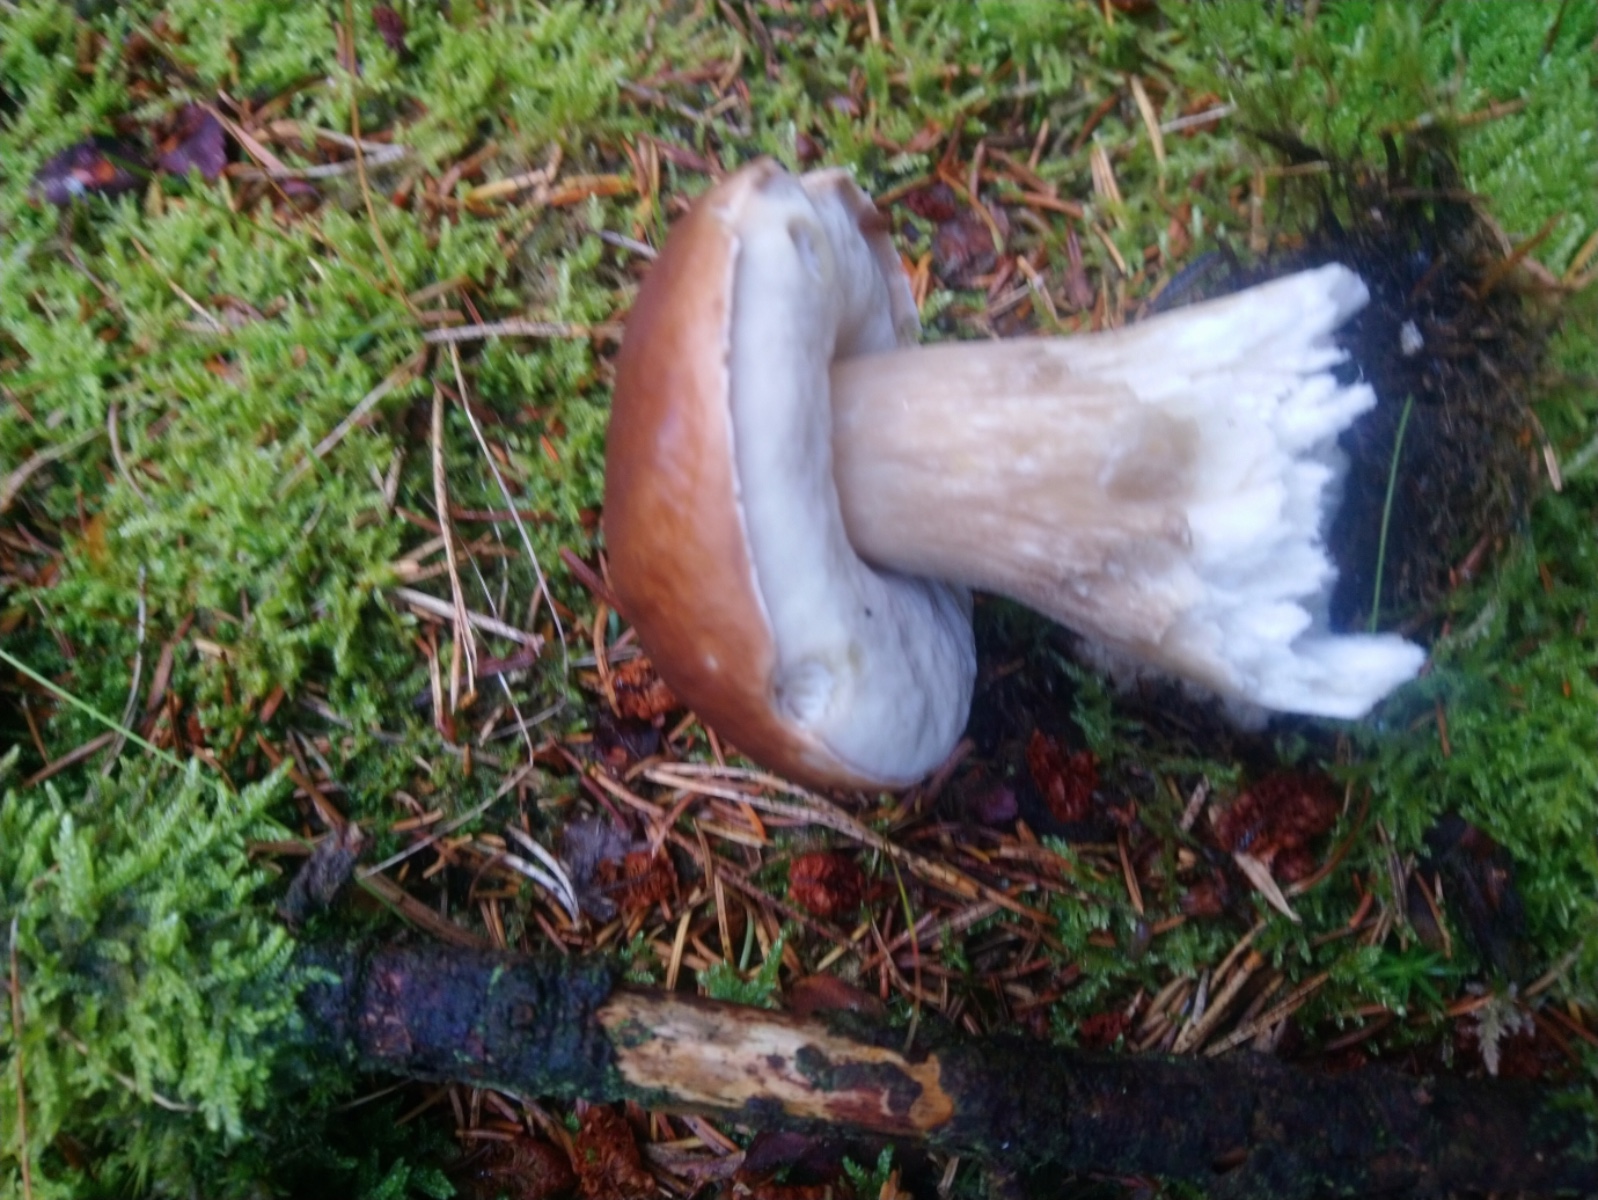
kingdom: Fungi
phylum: Basidiomycota
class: Agaricomycetes
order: Boletales
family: Boletaceae
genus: Boletus
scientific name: Boletus edulis
